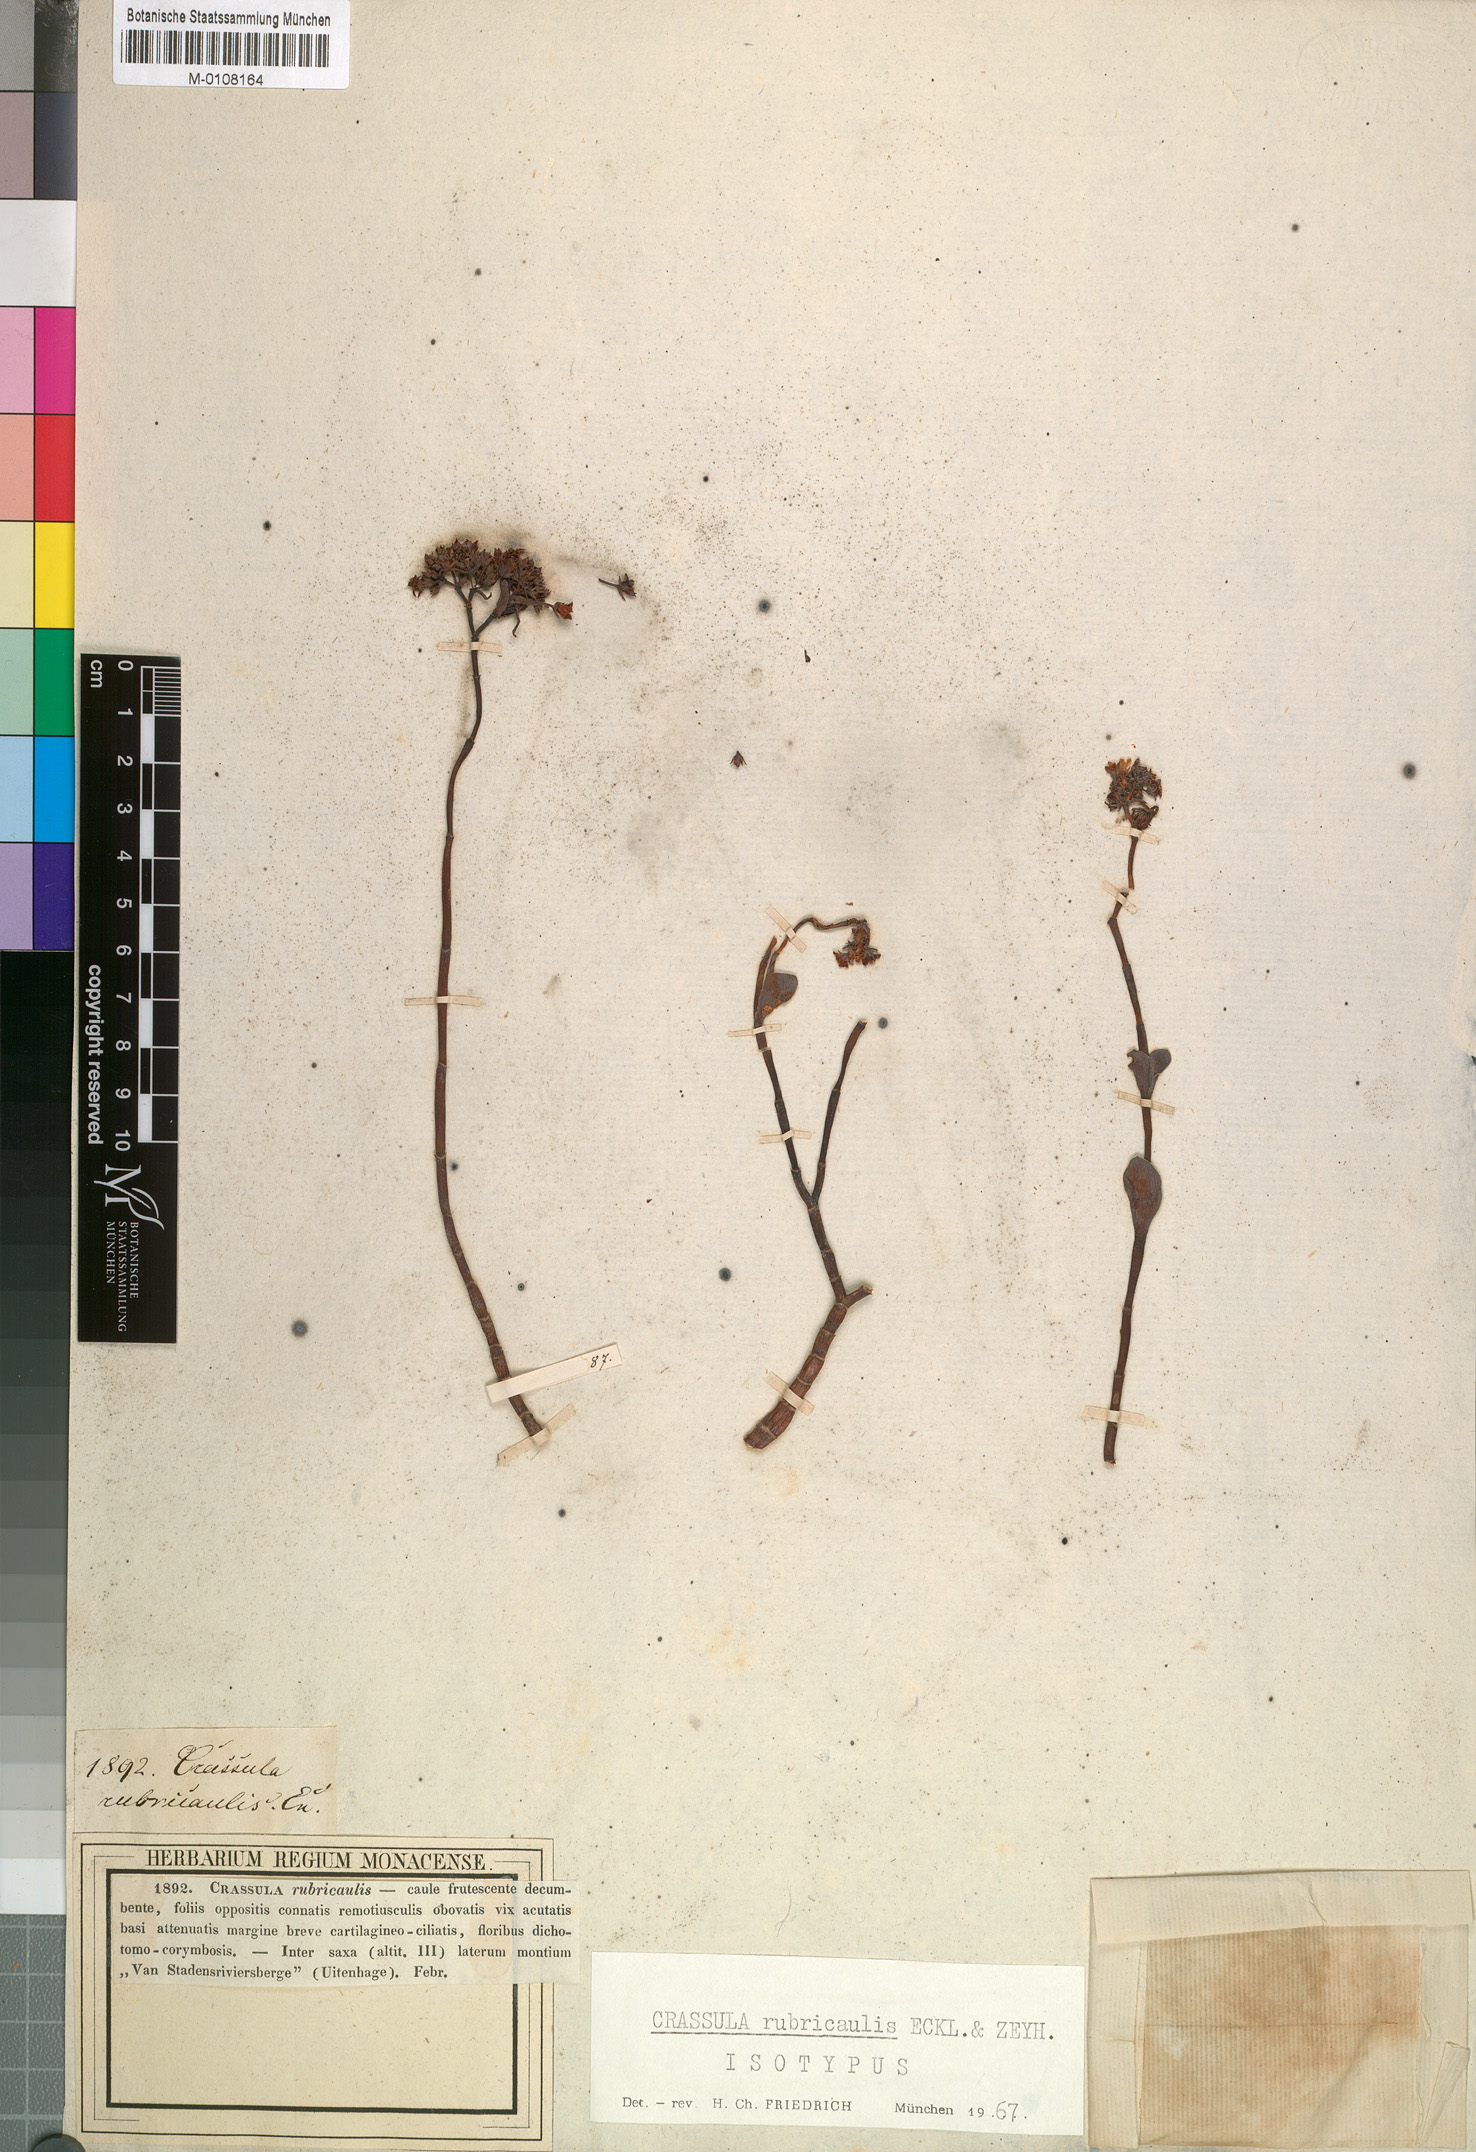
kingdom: Plantae
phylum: Tracheophyta
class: Magnoliopsida
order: Saxifragales
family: Crassulaceae
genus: Crassula
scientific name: Crassula rubricaulis
